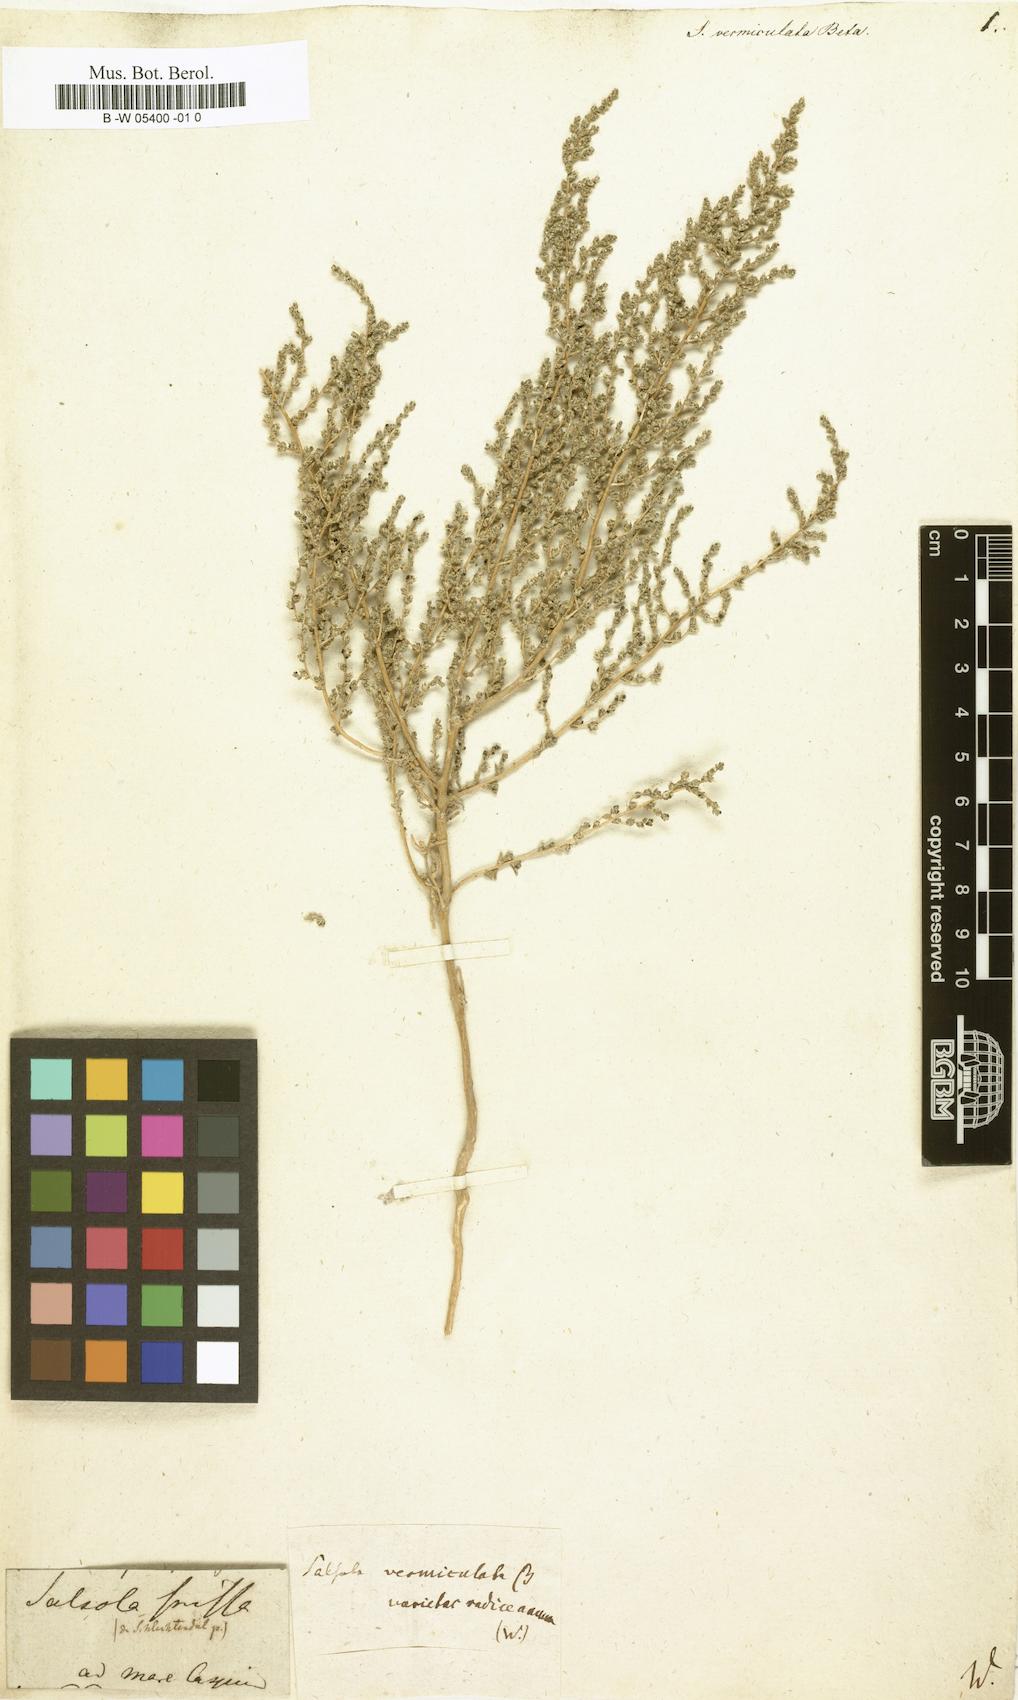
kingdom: Plantae
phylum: Tracheophyta
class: Magnoliopsida
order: Caryophyllales
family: Amaranthaceae
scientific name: Amaranthaceae
